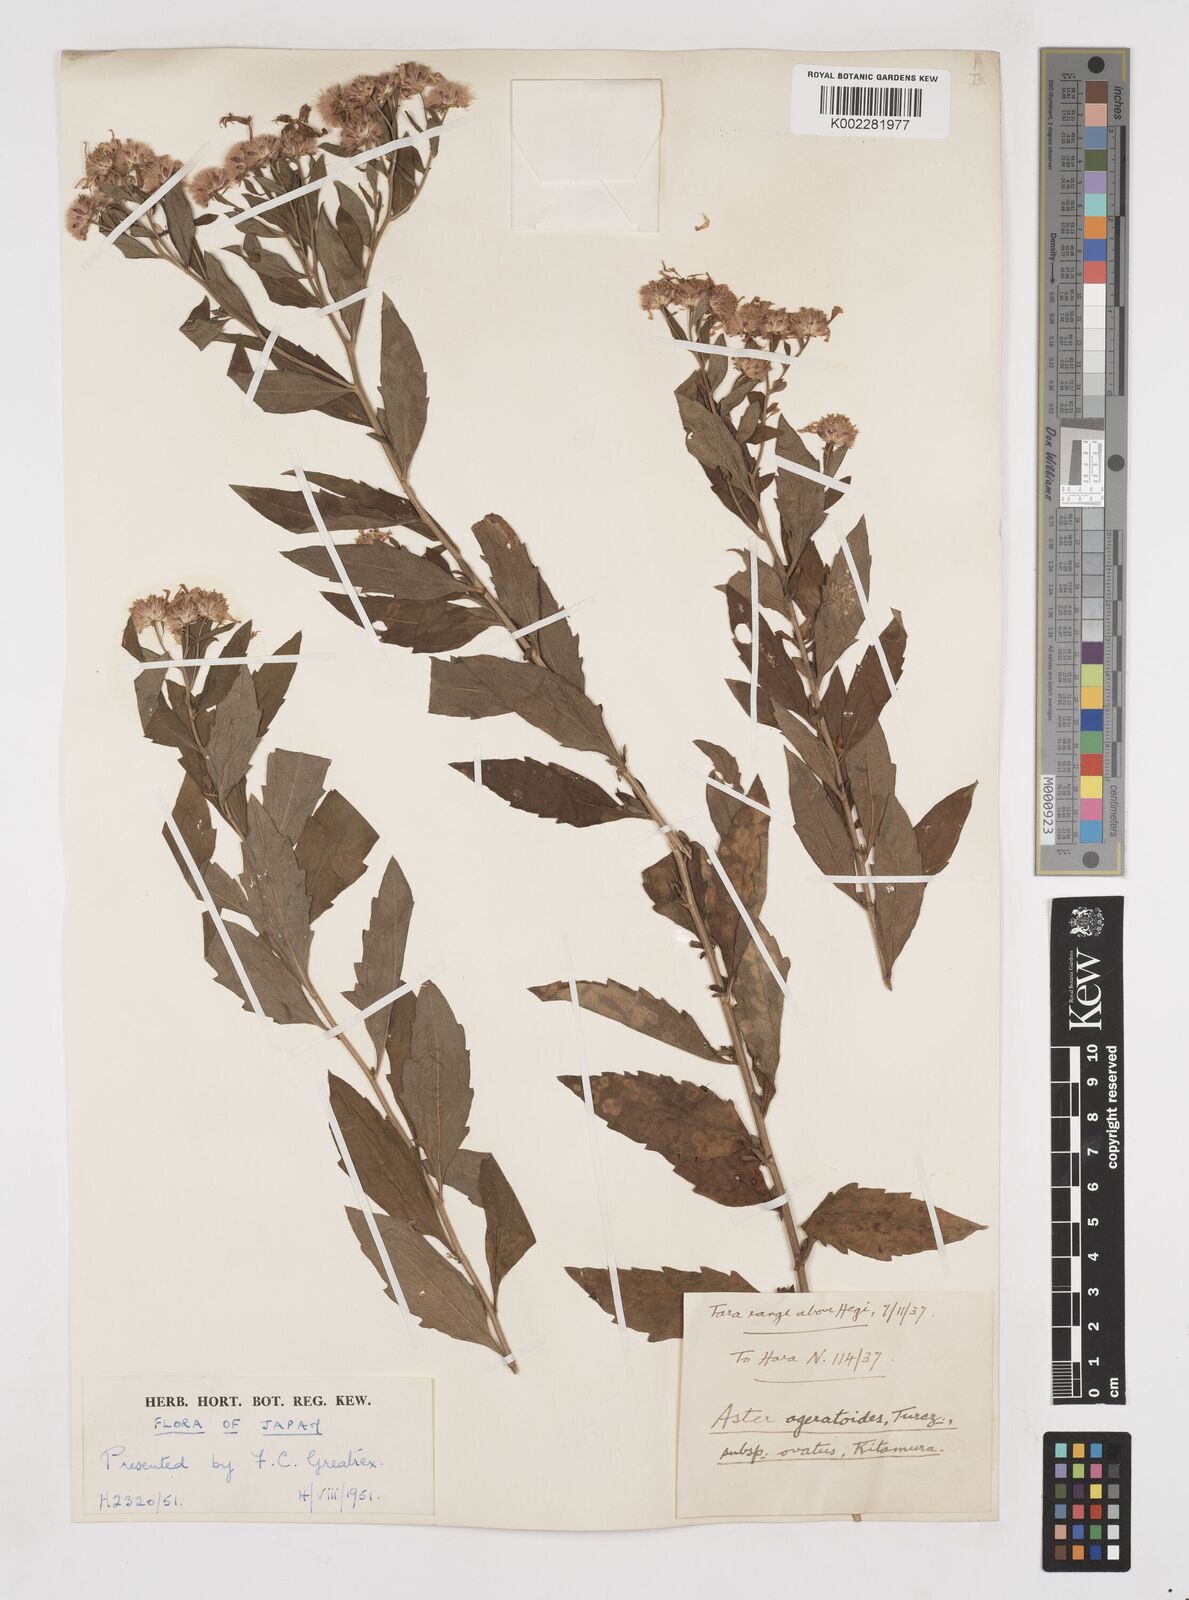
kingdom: Plantae
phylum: Tracheophyta
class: Magnoliopsida
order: Asterales
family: Asteraceae
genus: Aster
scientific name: Aster trinervius
